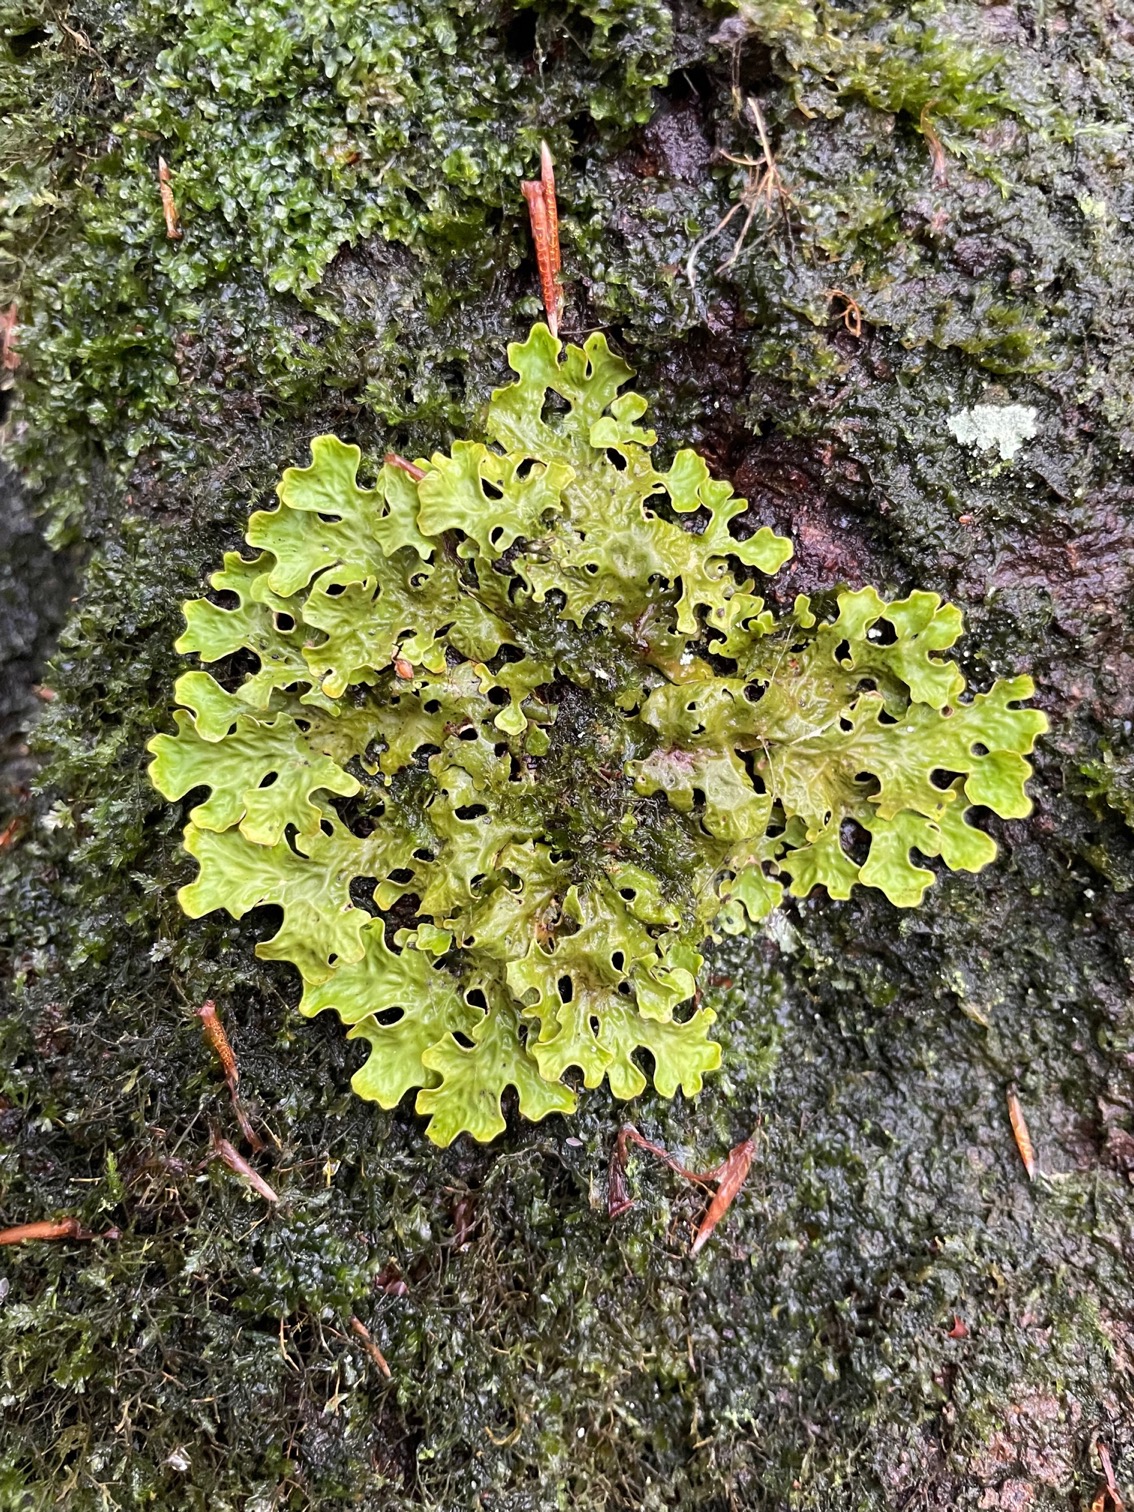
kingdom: Fungi
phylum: Ascomycota
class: Lecanoromycetes
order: Peltigerales
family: Lobariaceae
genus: Lobaria
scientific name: Lobaria pulmonaria
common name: Almindelig lungelav
